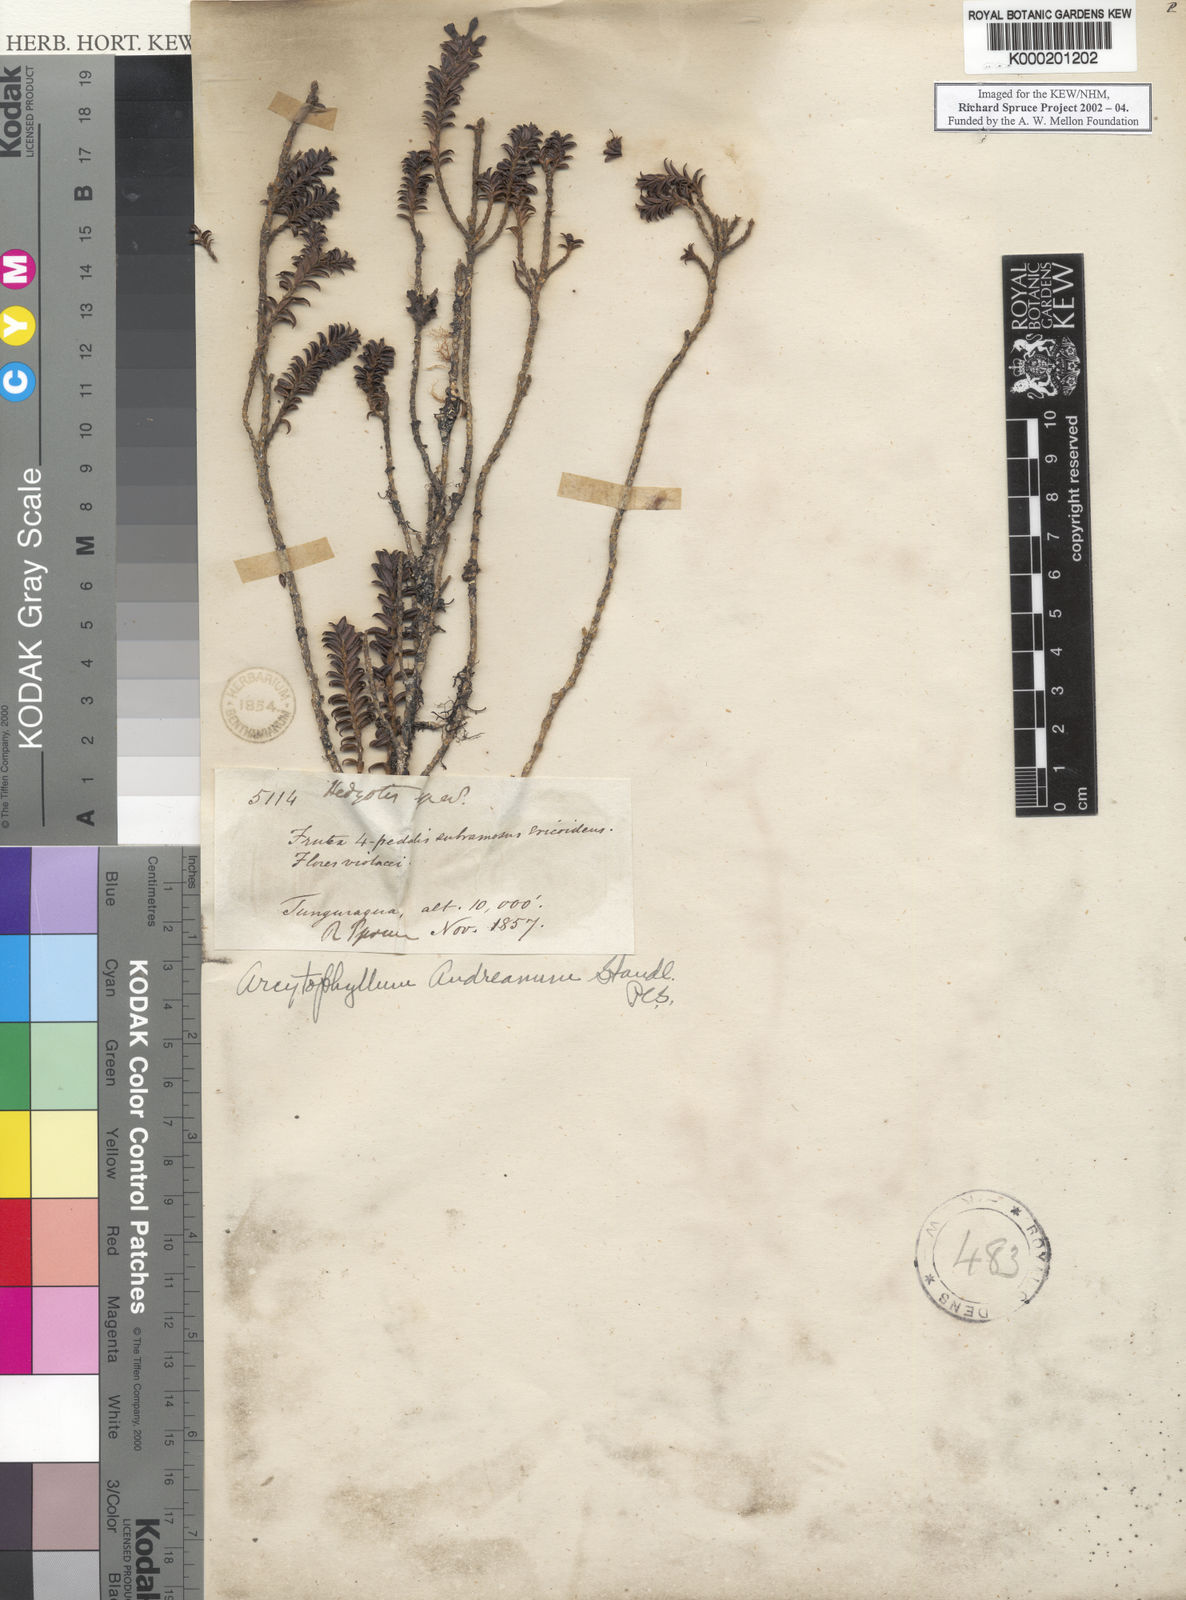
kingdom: Plantae
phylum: Tracheophyta
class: Magnoliopsida
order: Gentianales
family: Rubiaceae
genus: Arcytophyllum
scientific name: Arcytophyllum ciliolatum
